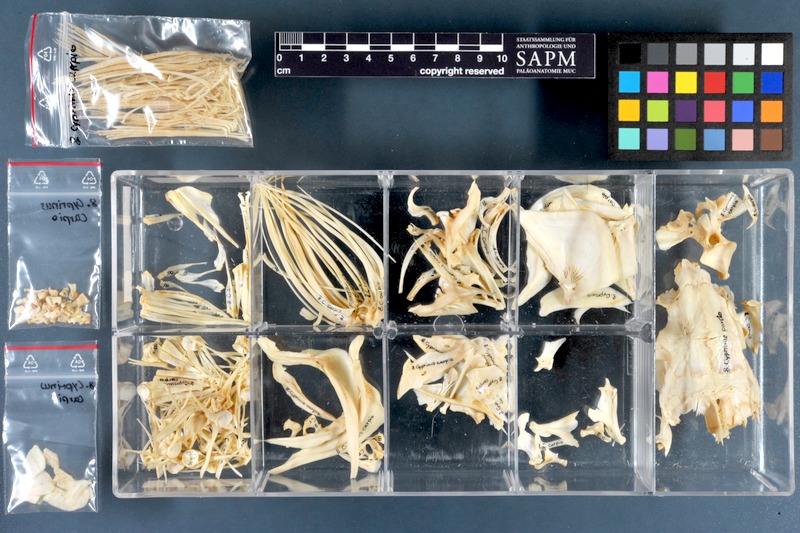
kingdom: Animalia
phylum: Chordata
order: Cypriniformes
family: Cyprinidae
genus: Cyprinus
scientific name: Cyprinus carpio
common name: Common carp
